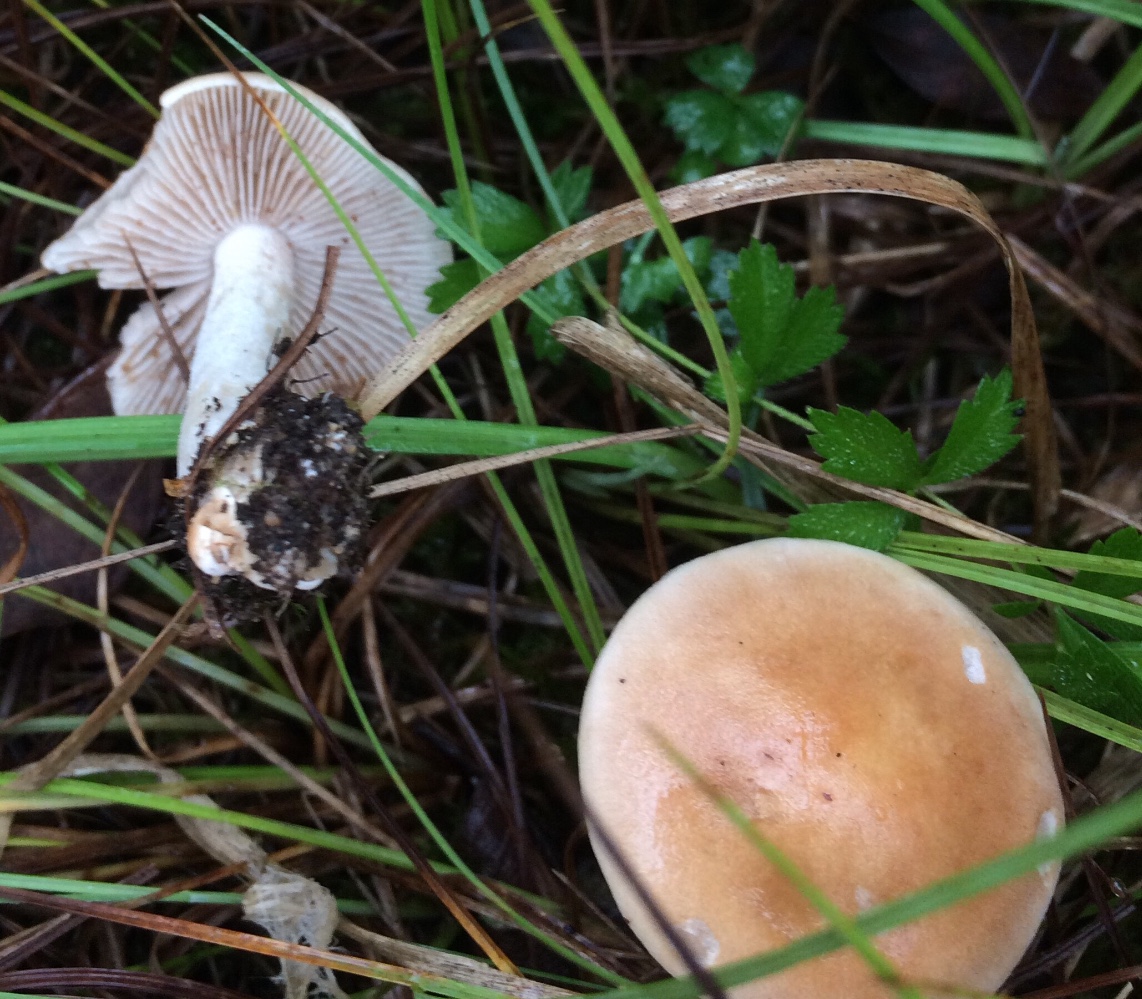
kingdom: Fungi
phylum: Basidiomycota
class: Agaricomycetes
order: Agaricales
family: Hymenogastraceae
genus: Hebeloma
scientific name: Hebeloma
